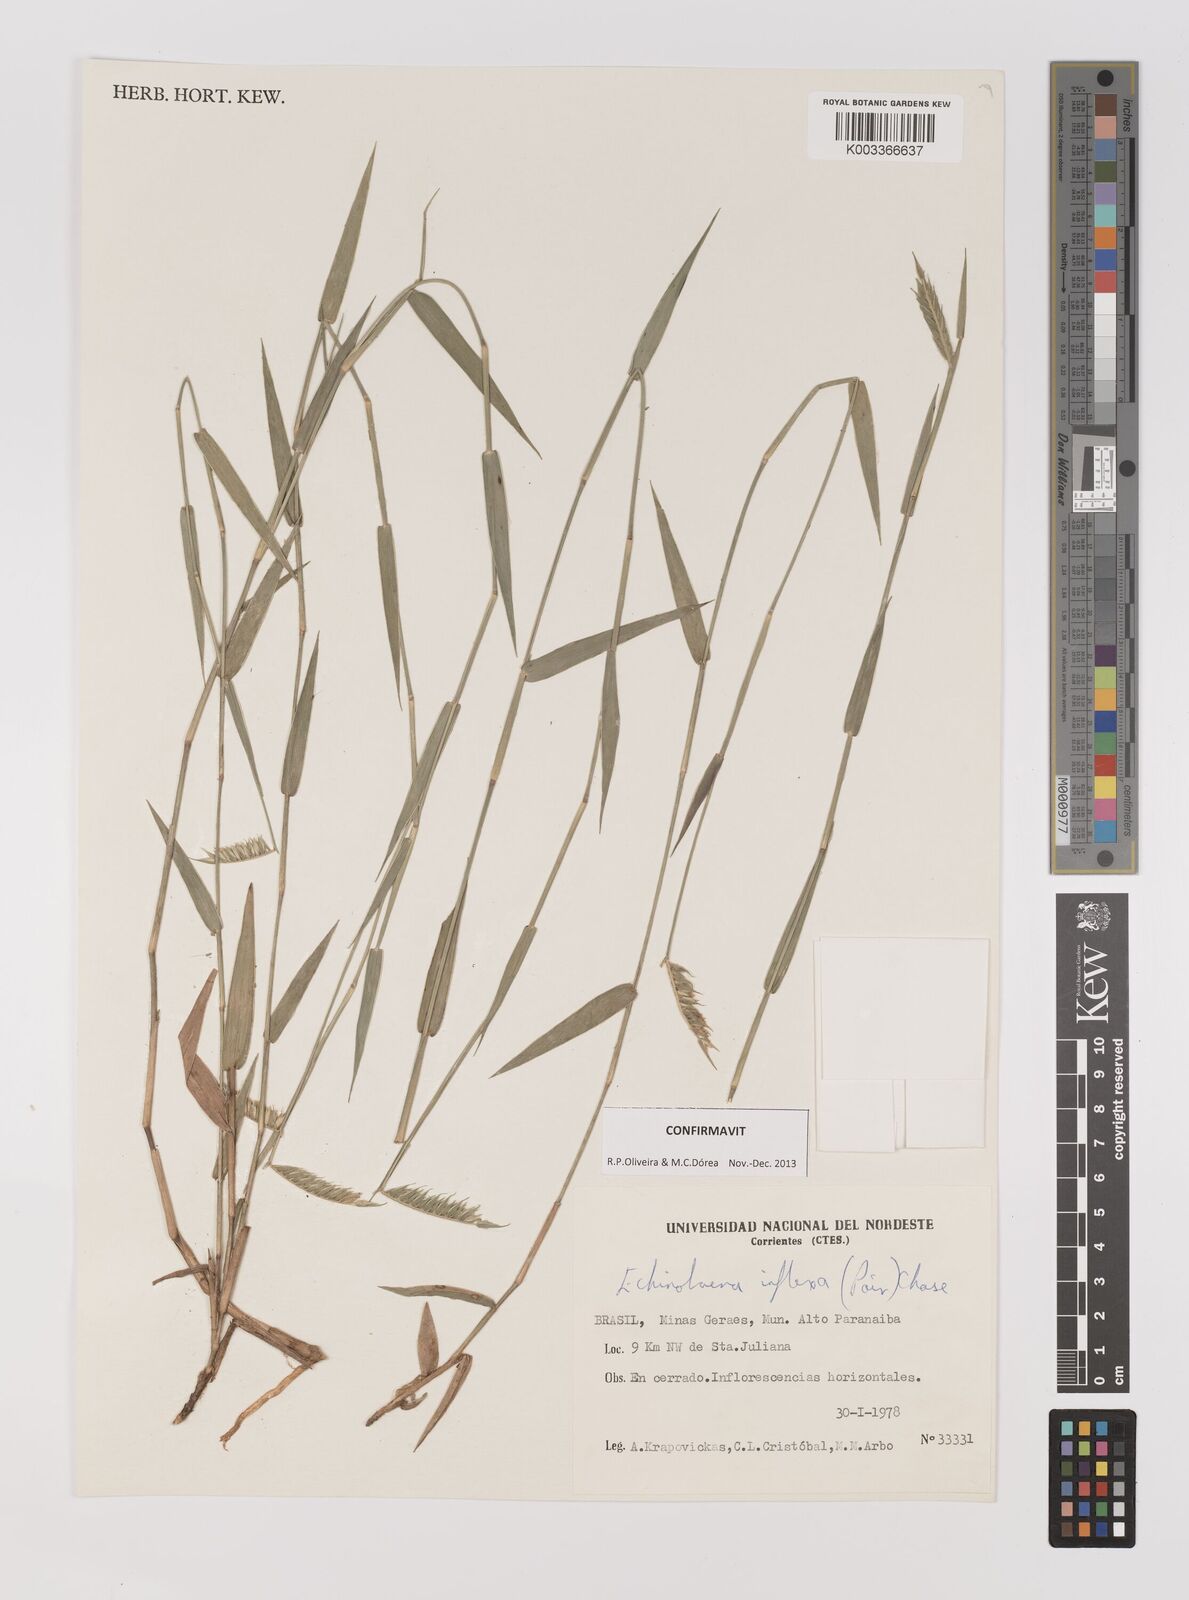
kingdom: Plantae
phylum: Tracheophyta
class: Liliopsida
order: Poales
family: Poaceae
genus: Echinolaena
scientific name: Echinolaena inflexa
